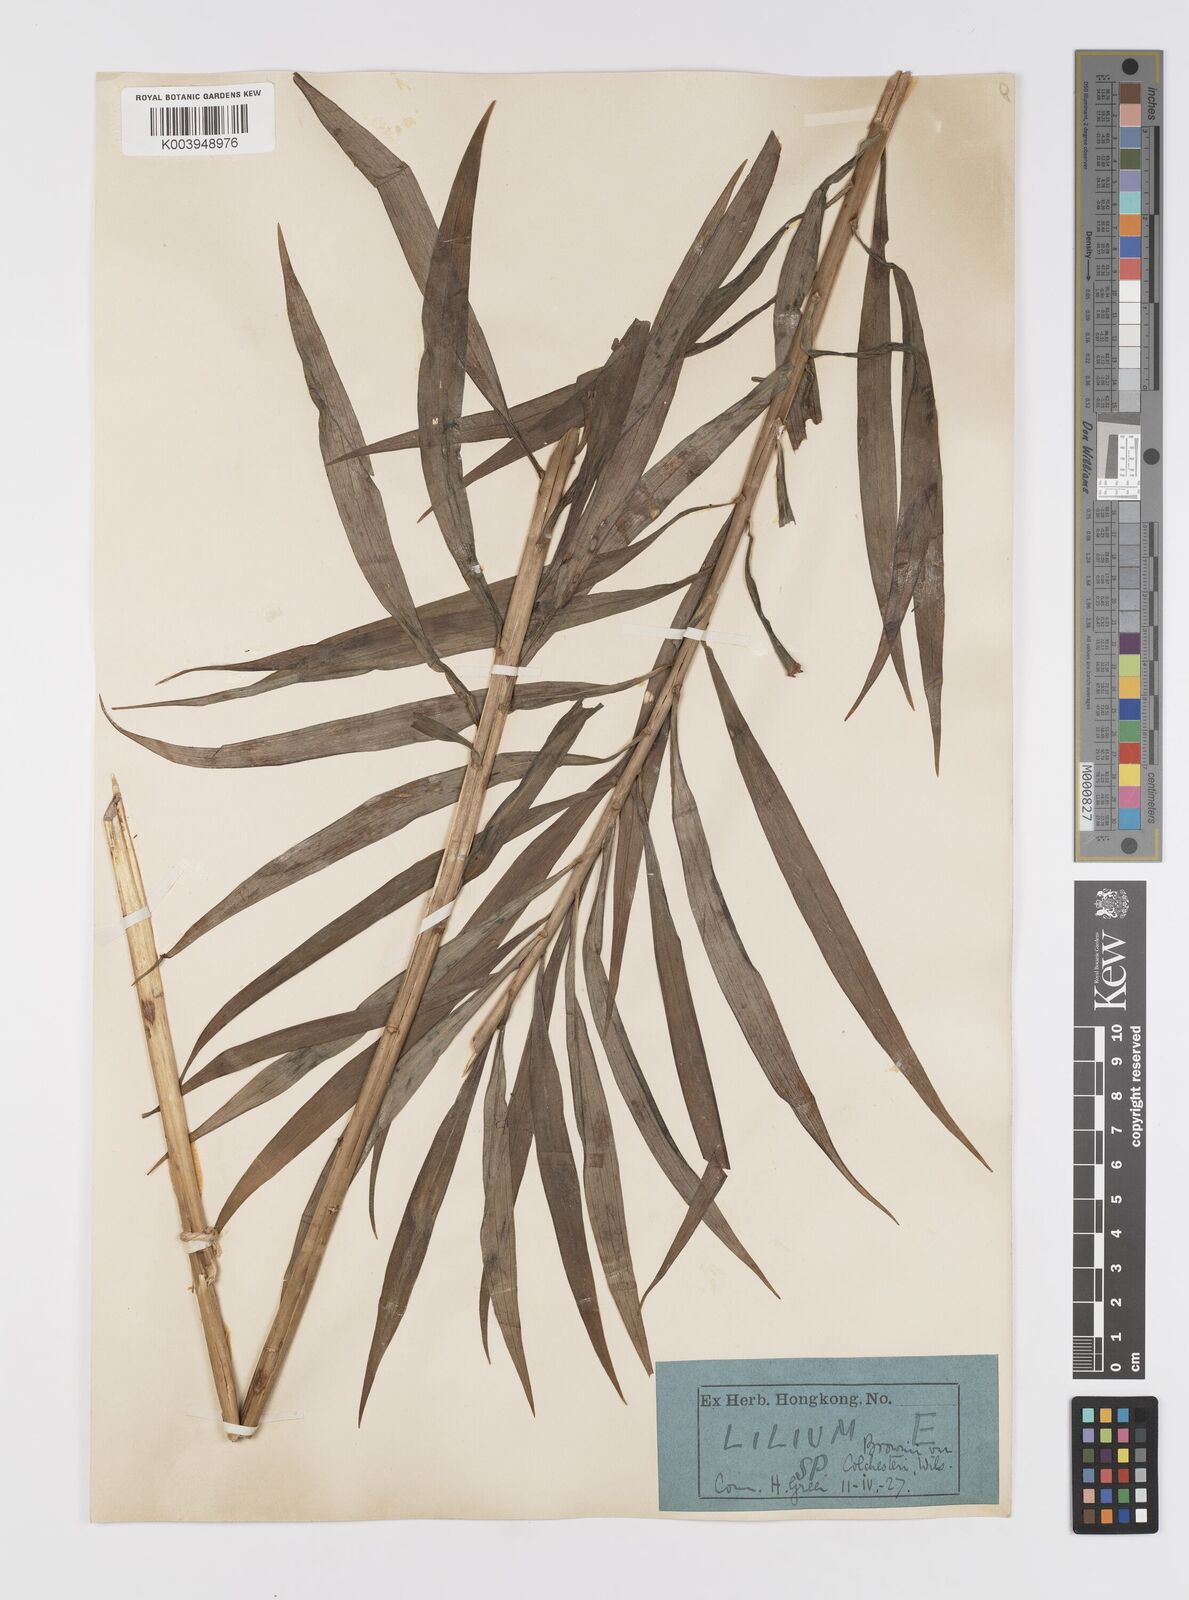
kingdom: Plantae
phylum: Tracheophyta
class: Liliopsida
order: Liliales
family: Liliaceae
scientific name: Liliaceae
